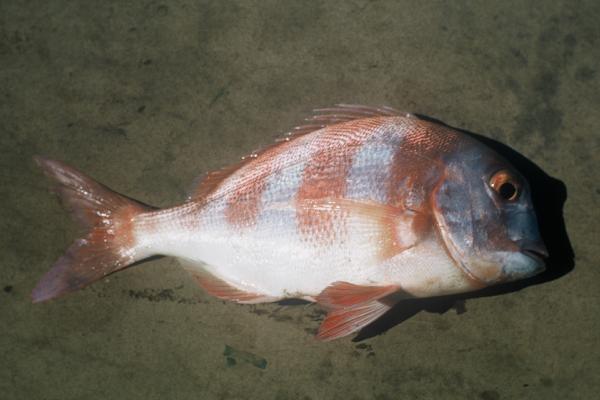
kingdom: Animalia
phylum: Chordata
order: Perciformes
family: Sparidae
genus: Chrysoblephus
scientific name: Chrysoblephus gibbiceps
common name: Red stumpnose
